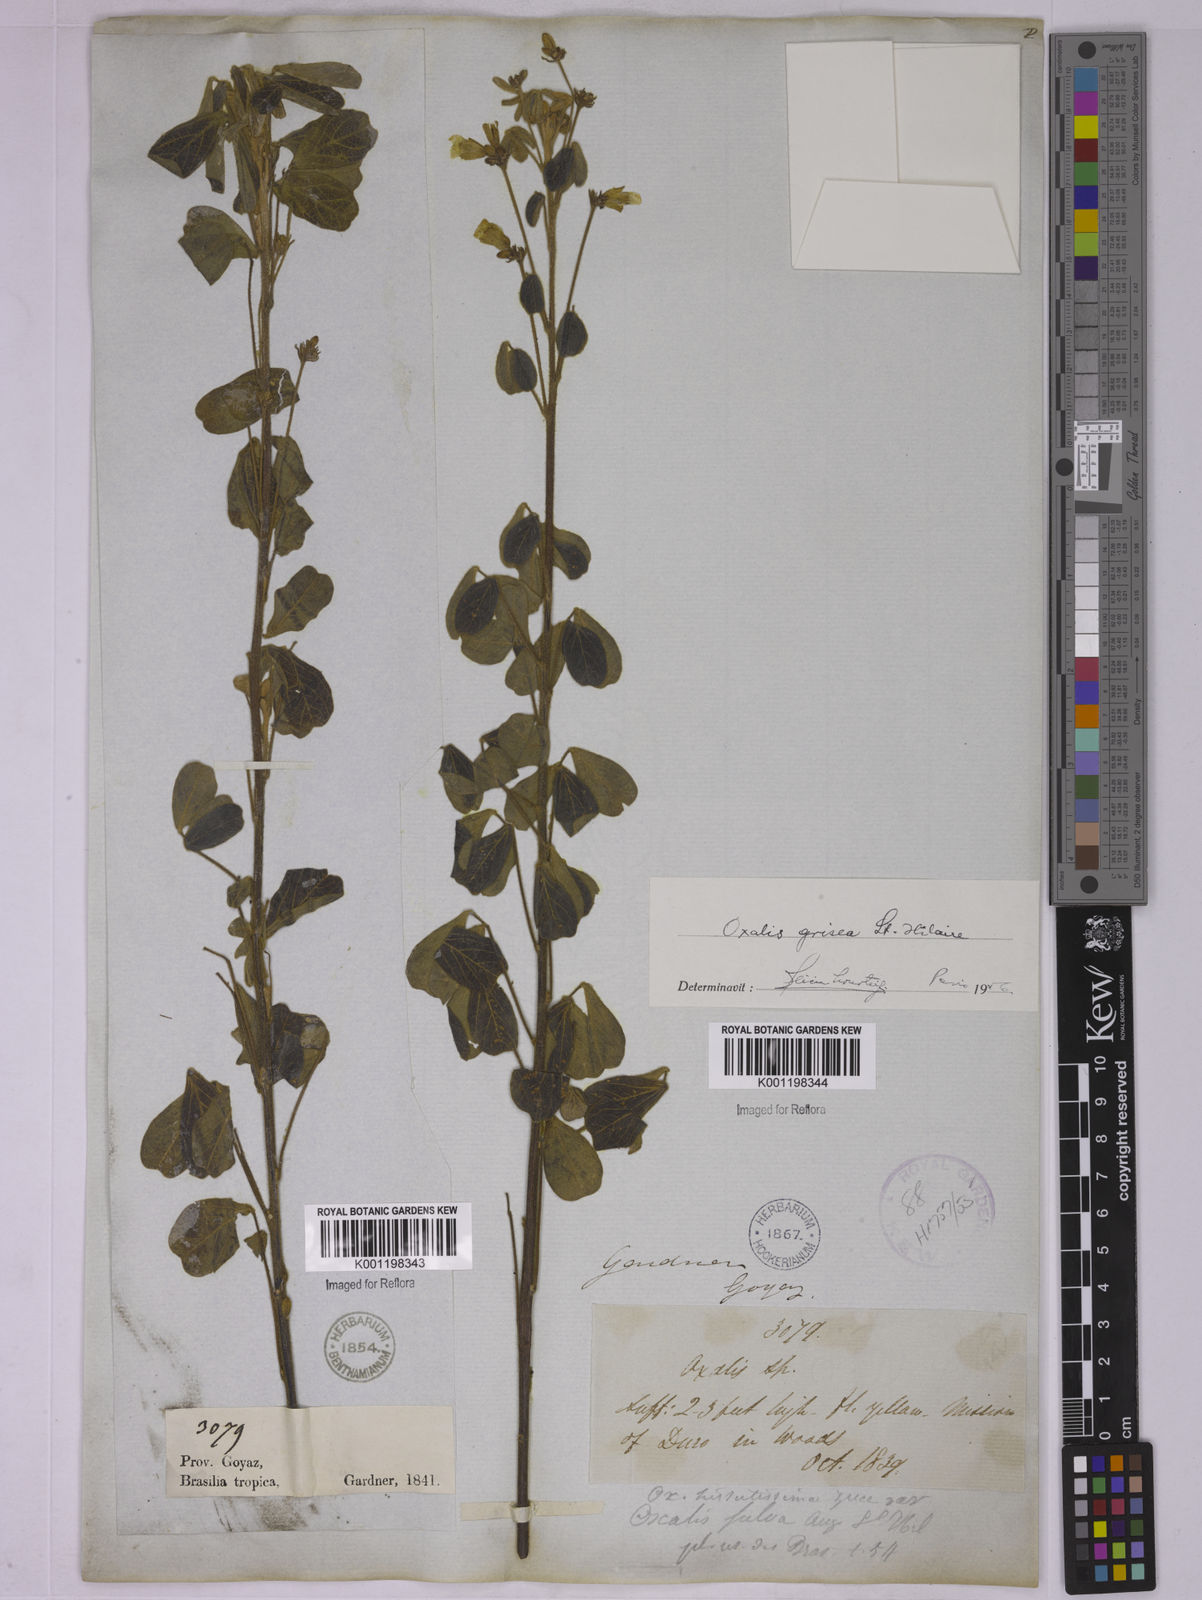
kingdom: Plantae
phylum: Tracheophyta
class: Magnoliopsida
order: Oxalidales
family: Oxalidaceae
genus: Oxalis
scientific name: Oxalis grisea
